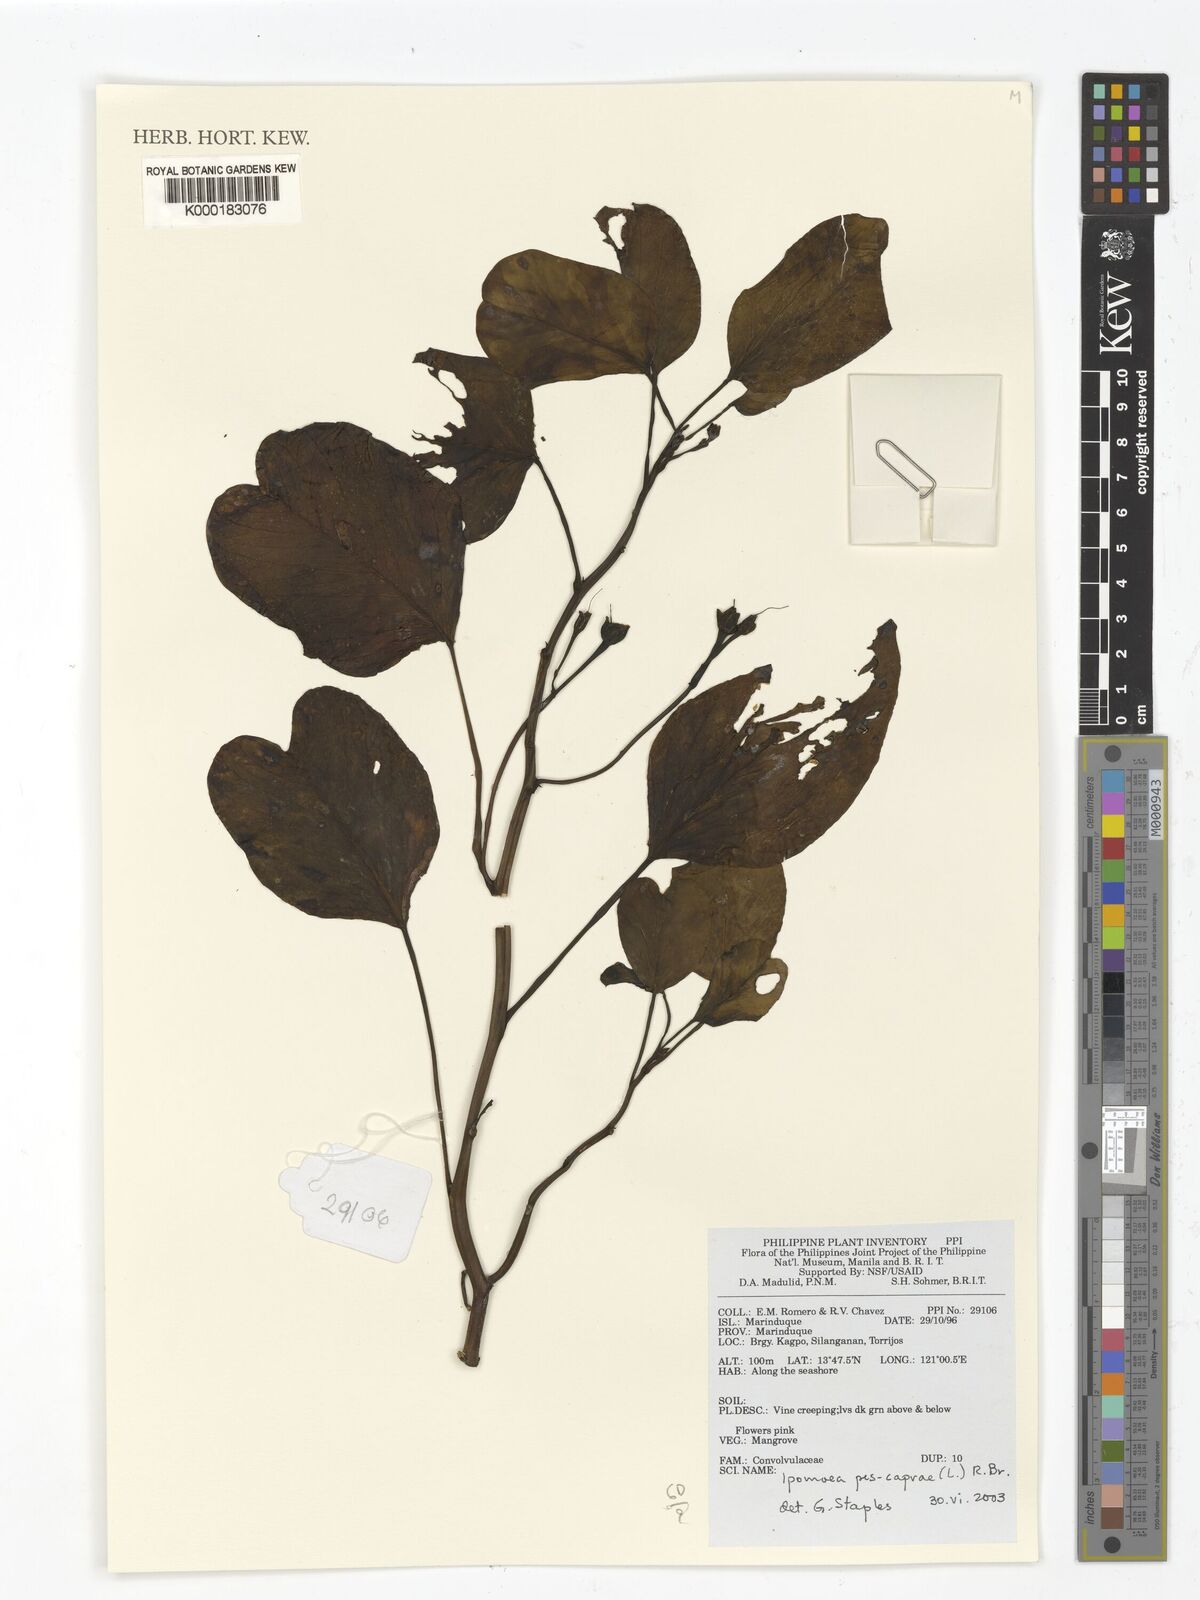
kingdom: Plantae
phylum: Tracheophyta
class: Magnoliopsida
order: Solanales
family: Convolvulaceae
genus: Ipomoea
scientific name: Ipomoea pes-caprae
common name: Beach morning glory
